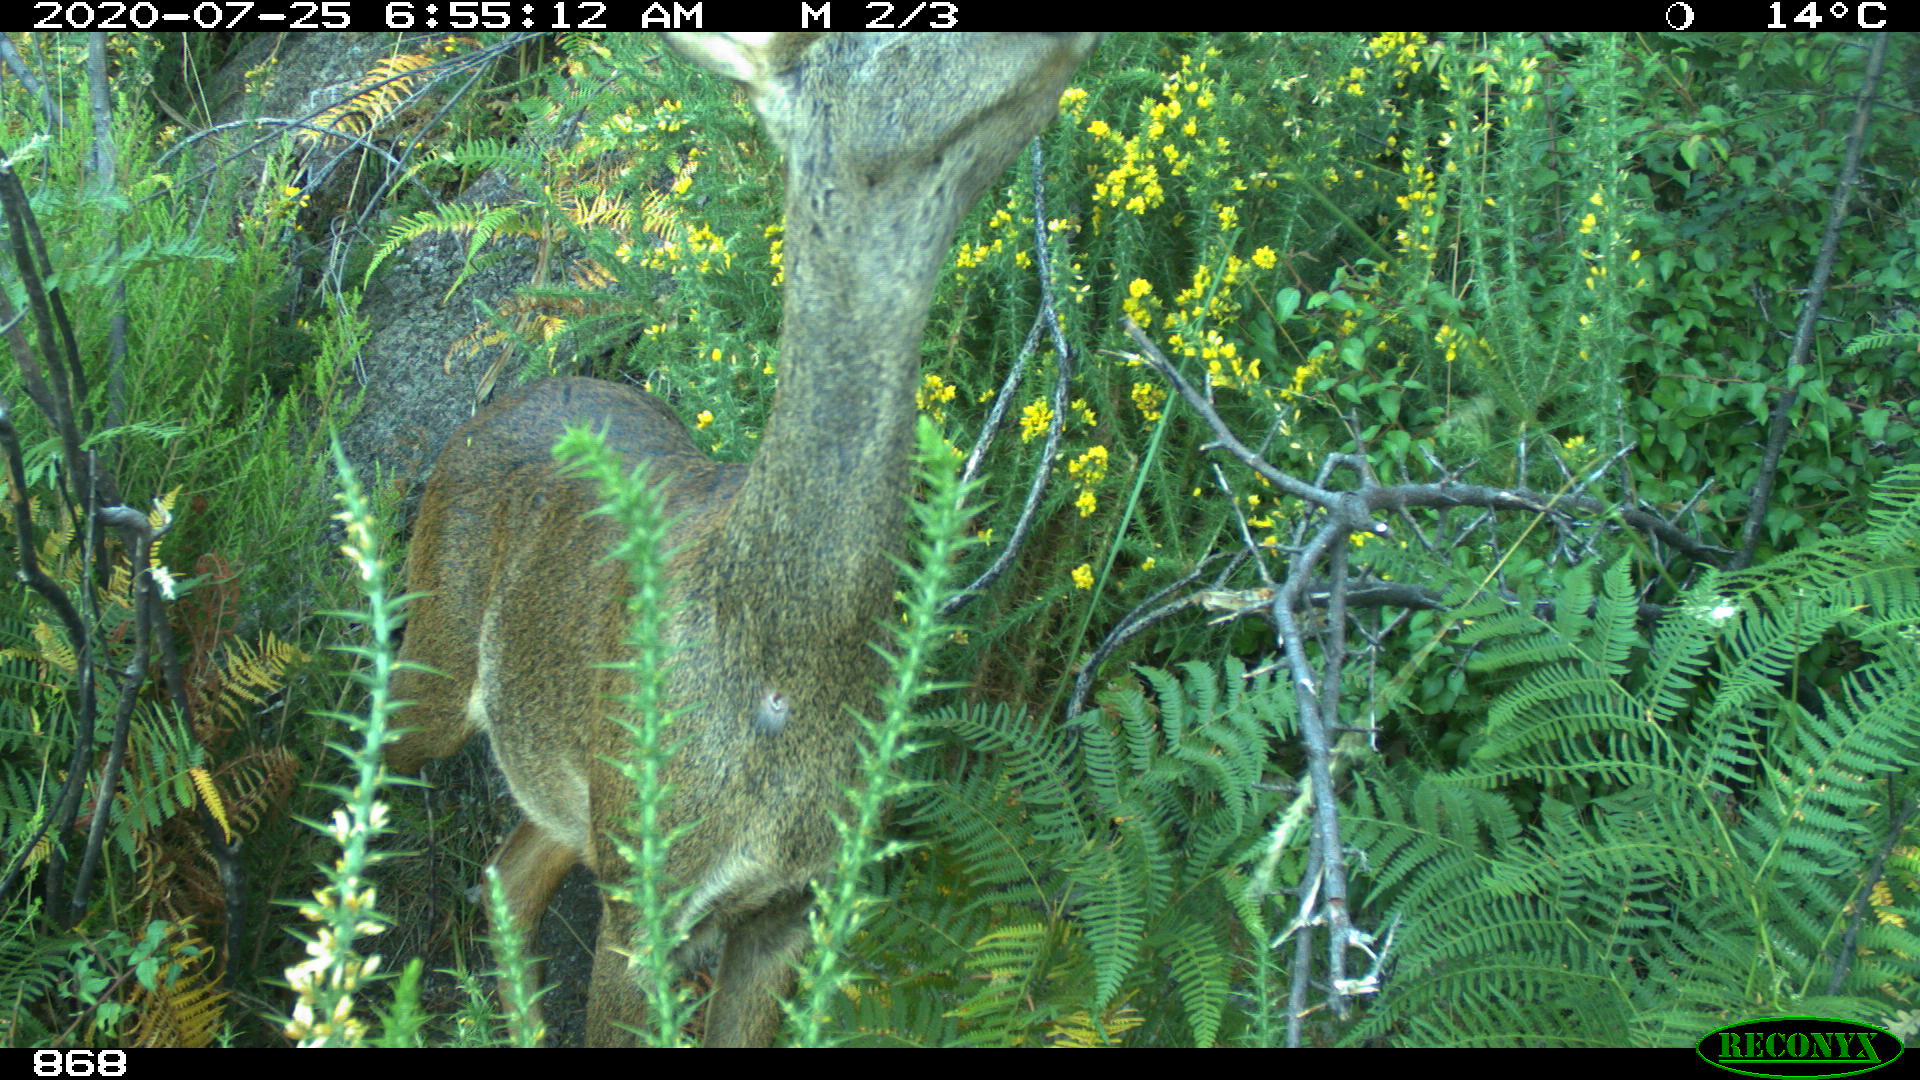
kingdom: Animalia
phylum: Chordata
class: Mammalia
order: Artiodactyla
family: Cervidae
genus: Capreolus
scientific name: Capreolus capreolus
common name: Western roe deer
